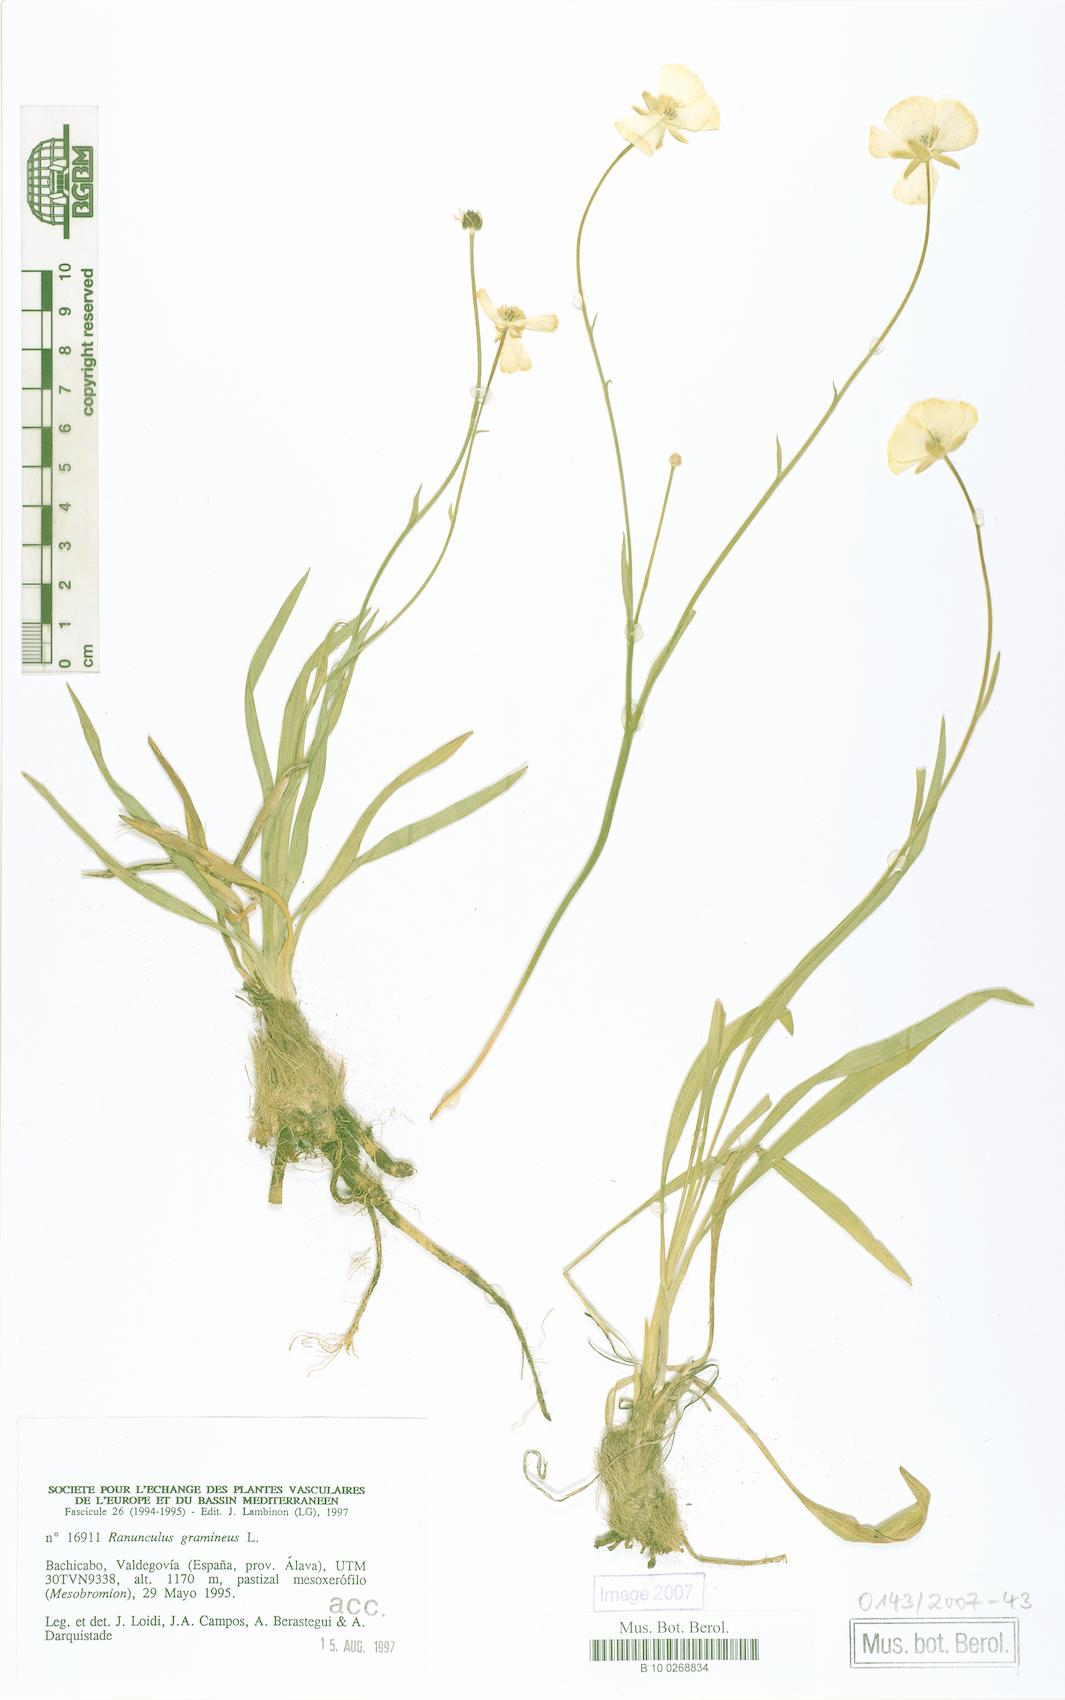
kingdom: Plantae
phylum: Tracheophyta
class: Magnoliopsida
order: Ranunculales
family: Ranunculaceae
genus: Ranunculus
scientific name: Ranunculus gramineus
